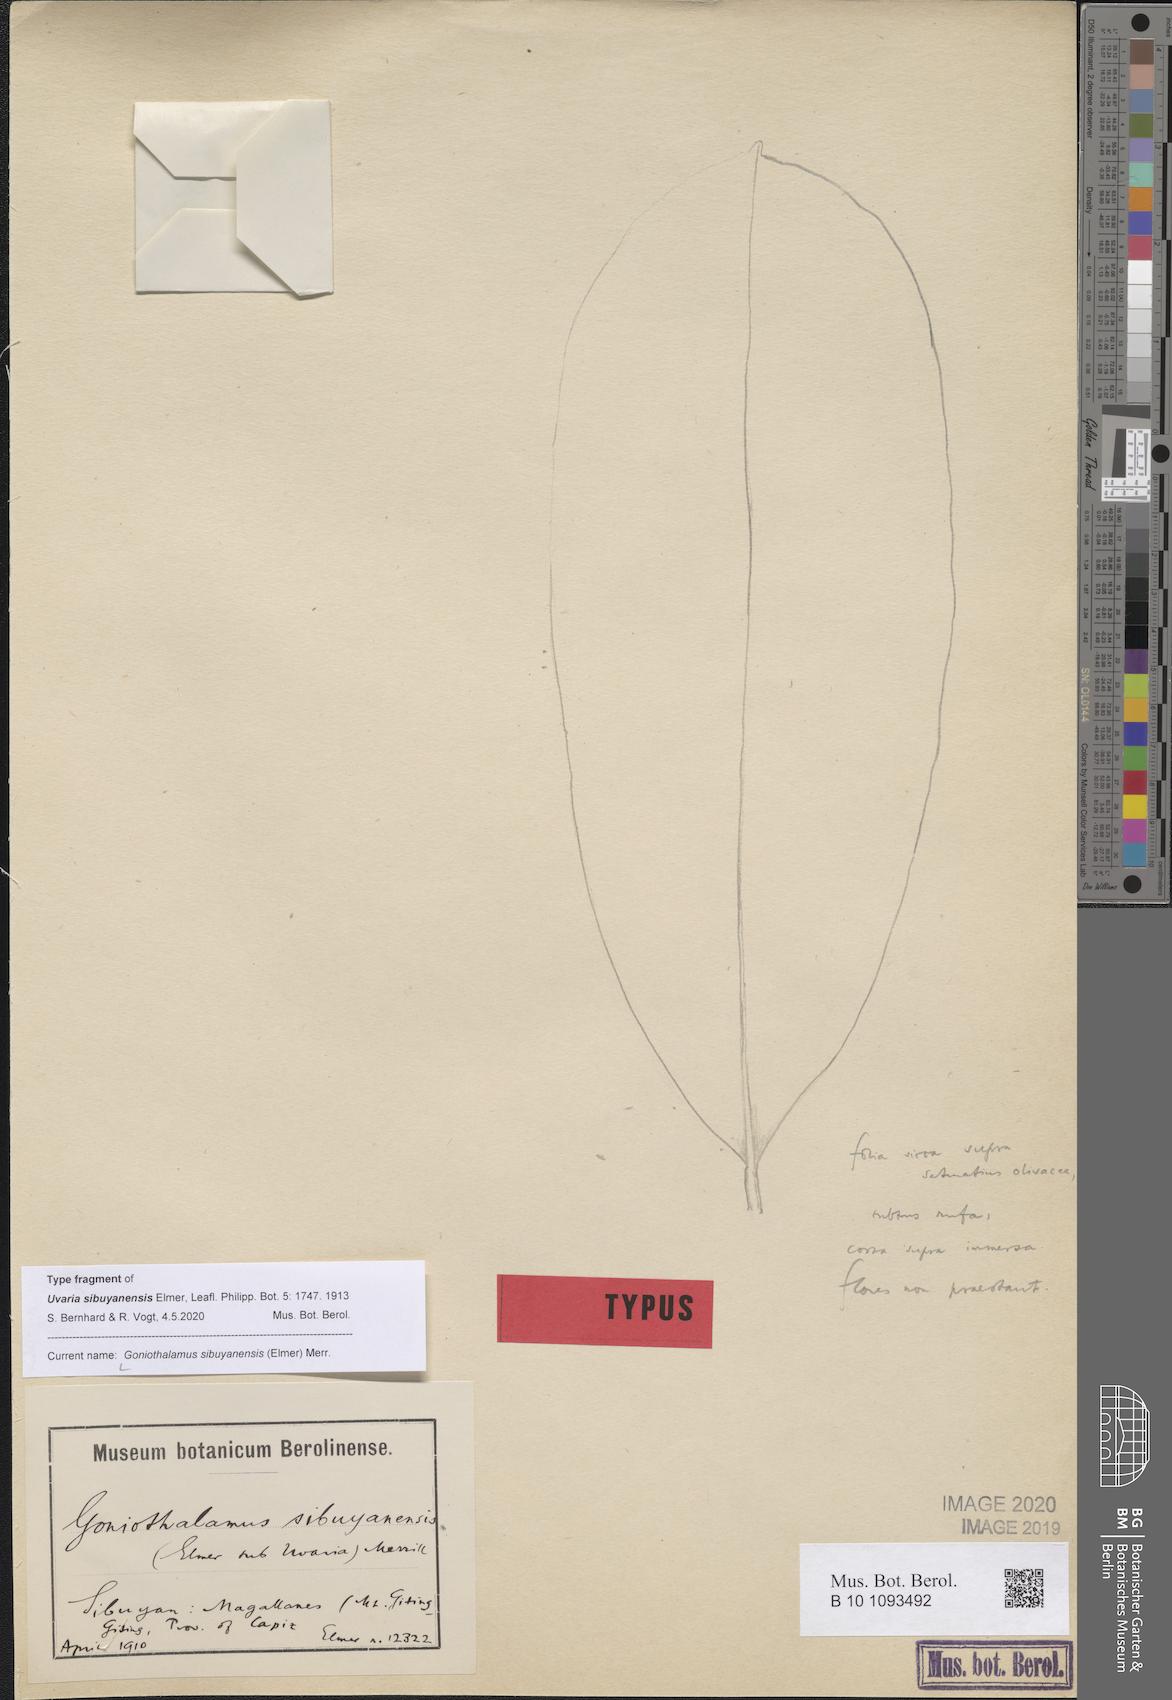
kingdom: Plantae
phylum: Tracheophyta
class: Magnoliopsida
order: Magnoliales
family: Annonaceae
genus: Goniothalamus
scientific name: Goniothalamus sibuyanensis
